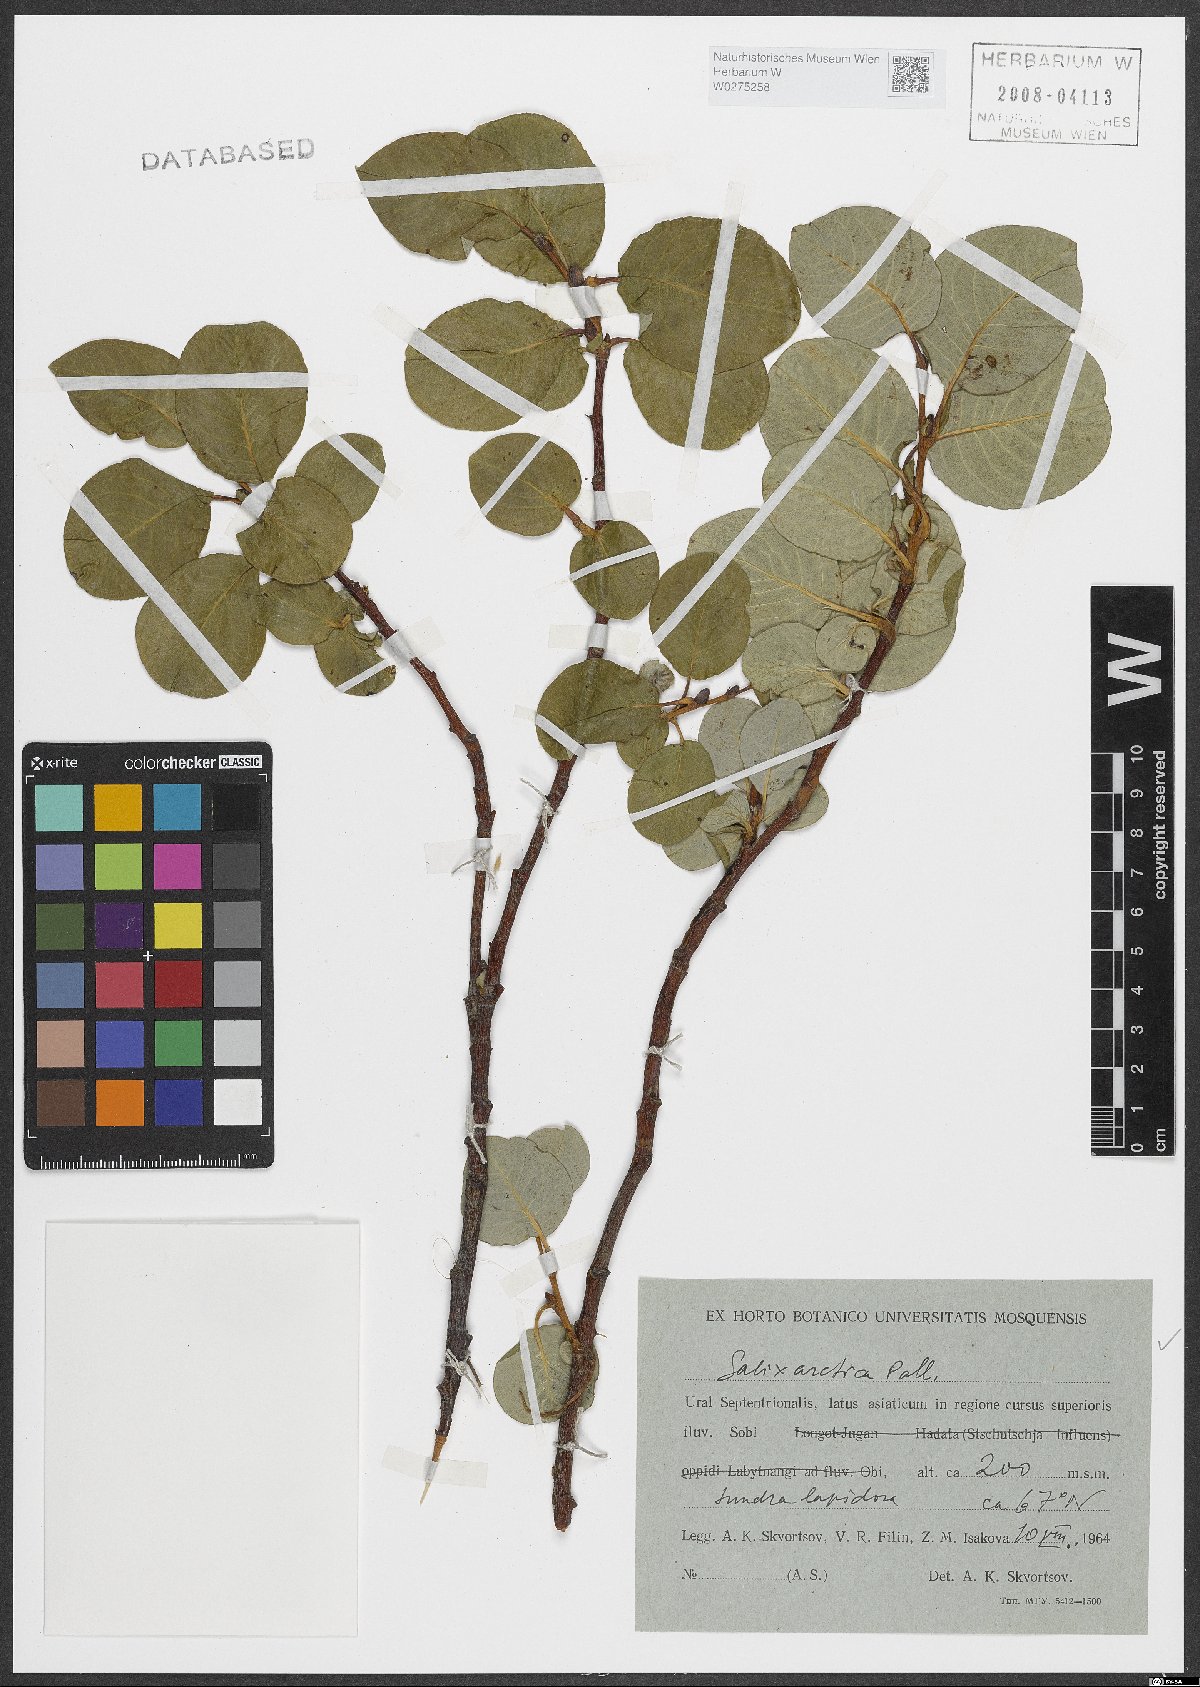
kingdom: Plantae
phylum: Tracheophyta
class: Magnoliopsida
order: Malpighiales
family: Salicaceae
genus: Salix
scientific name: Salix arctica
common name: Arctic willow
